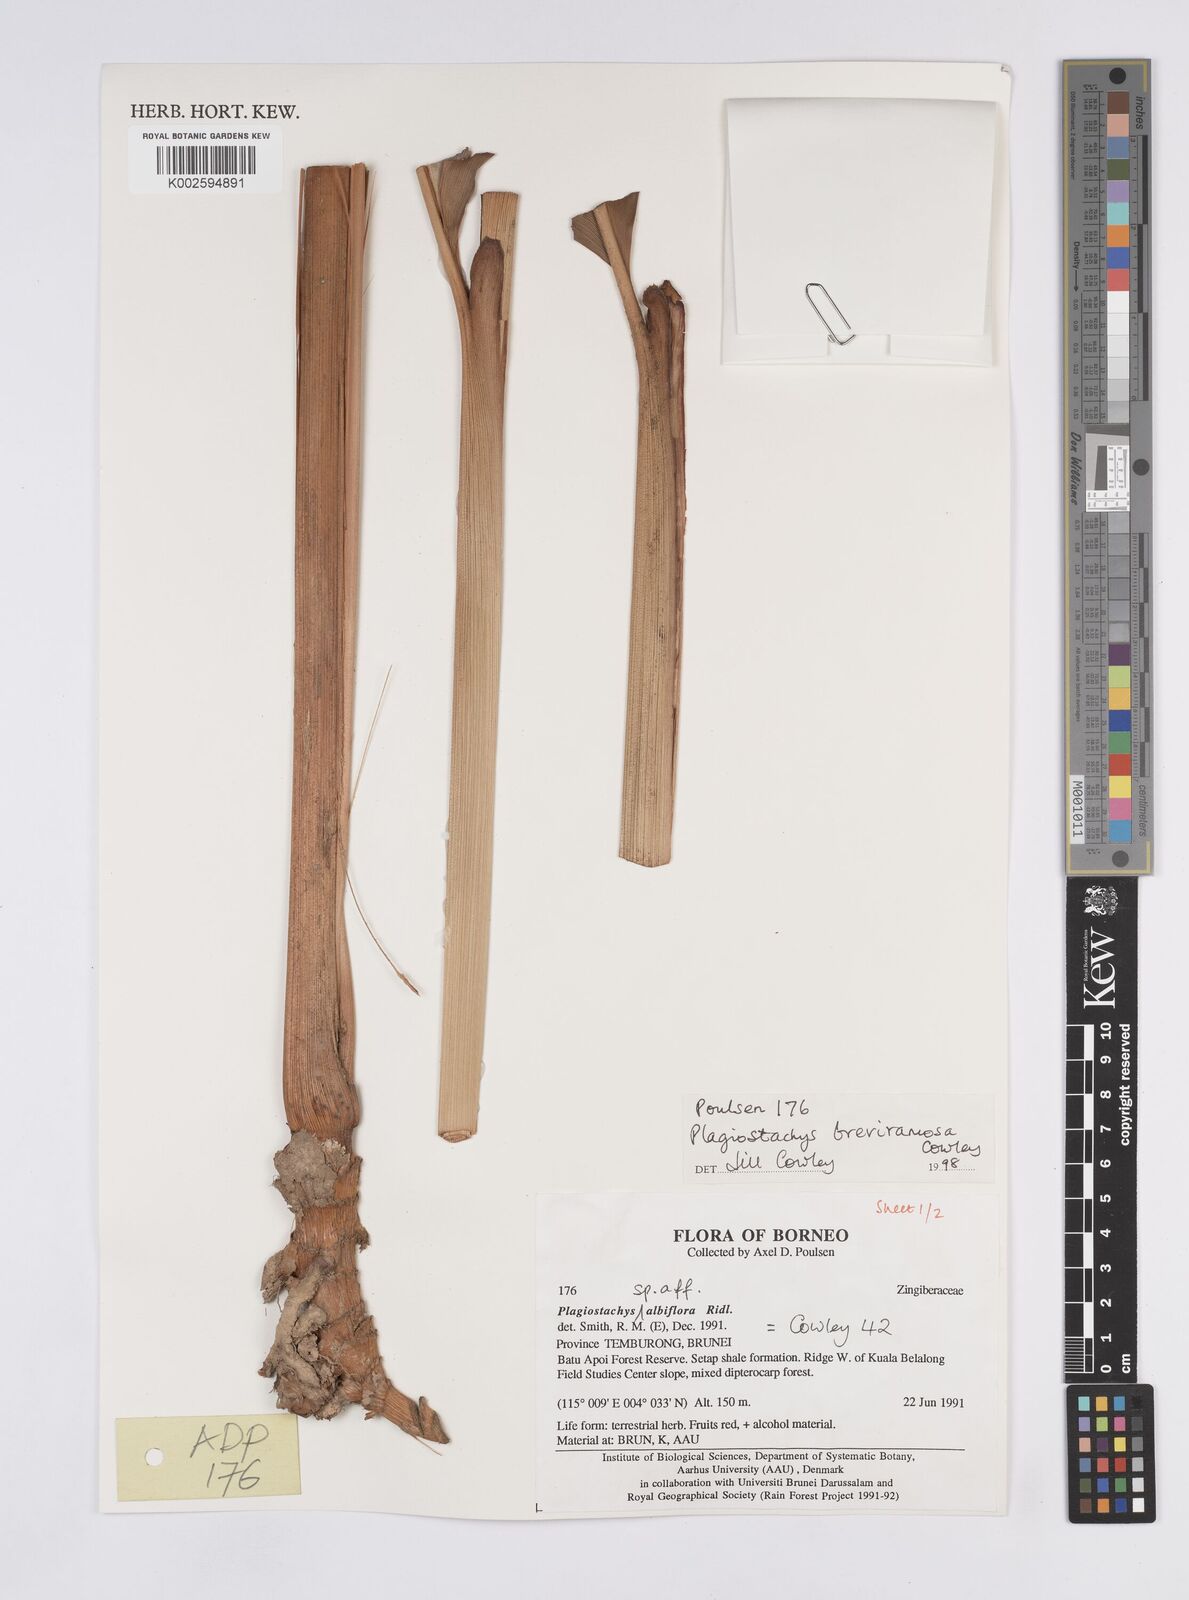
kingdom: Plantae
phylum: Tracheophyta
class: Liliopsida
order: Zingiberales
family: Zingiberaceae
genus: Plagiostachys
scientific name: Plagiostachys breviramosa
